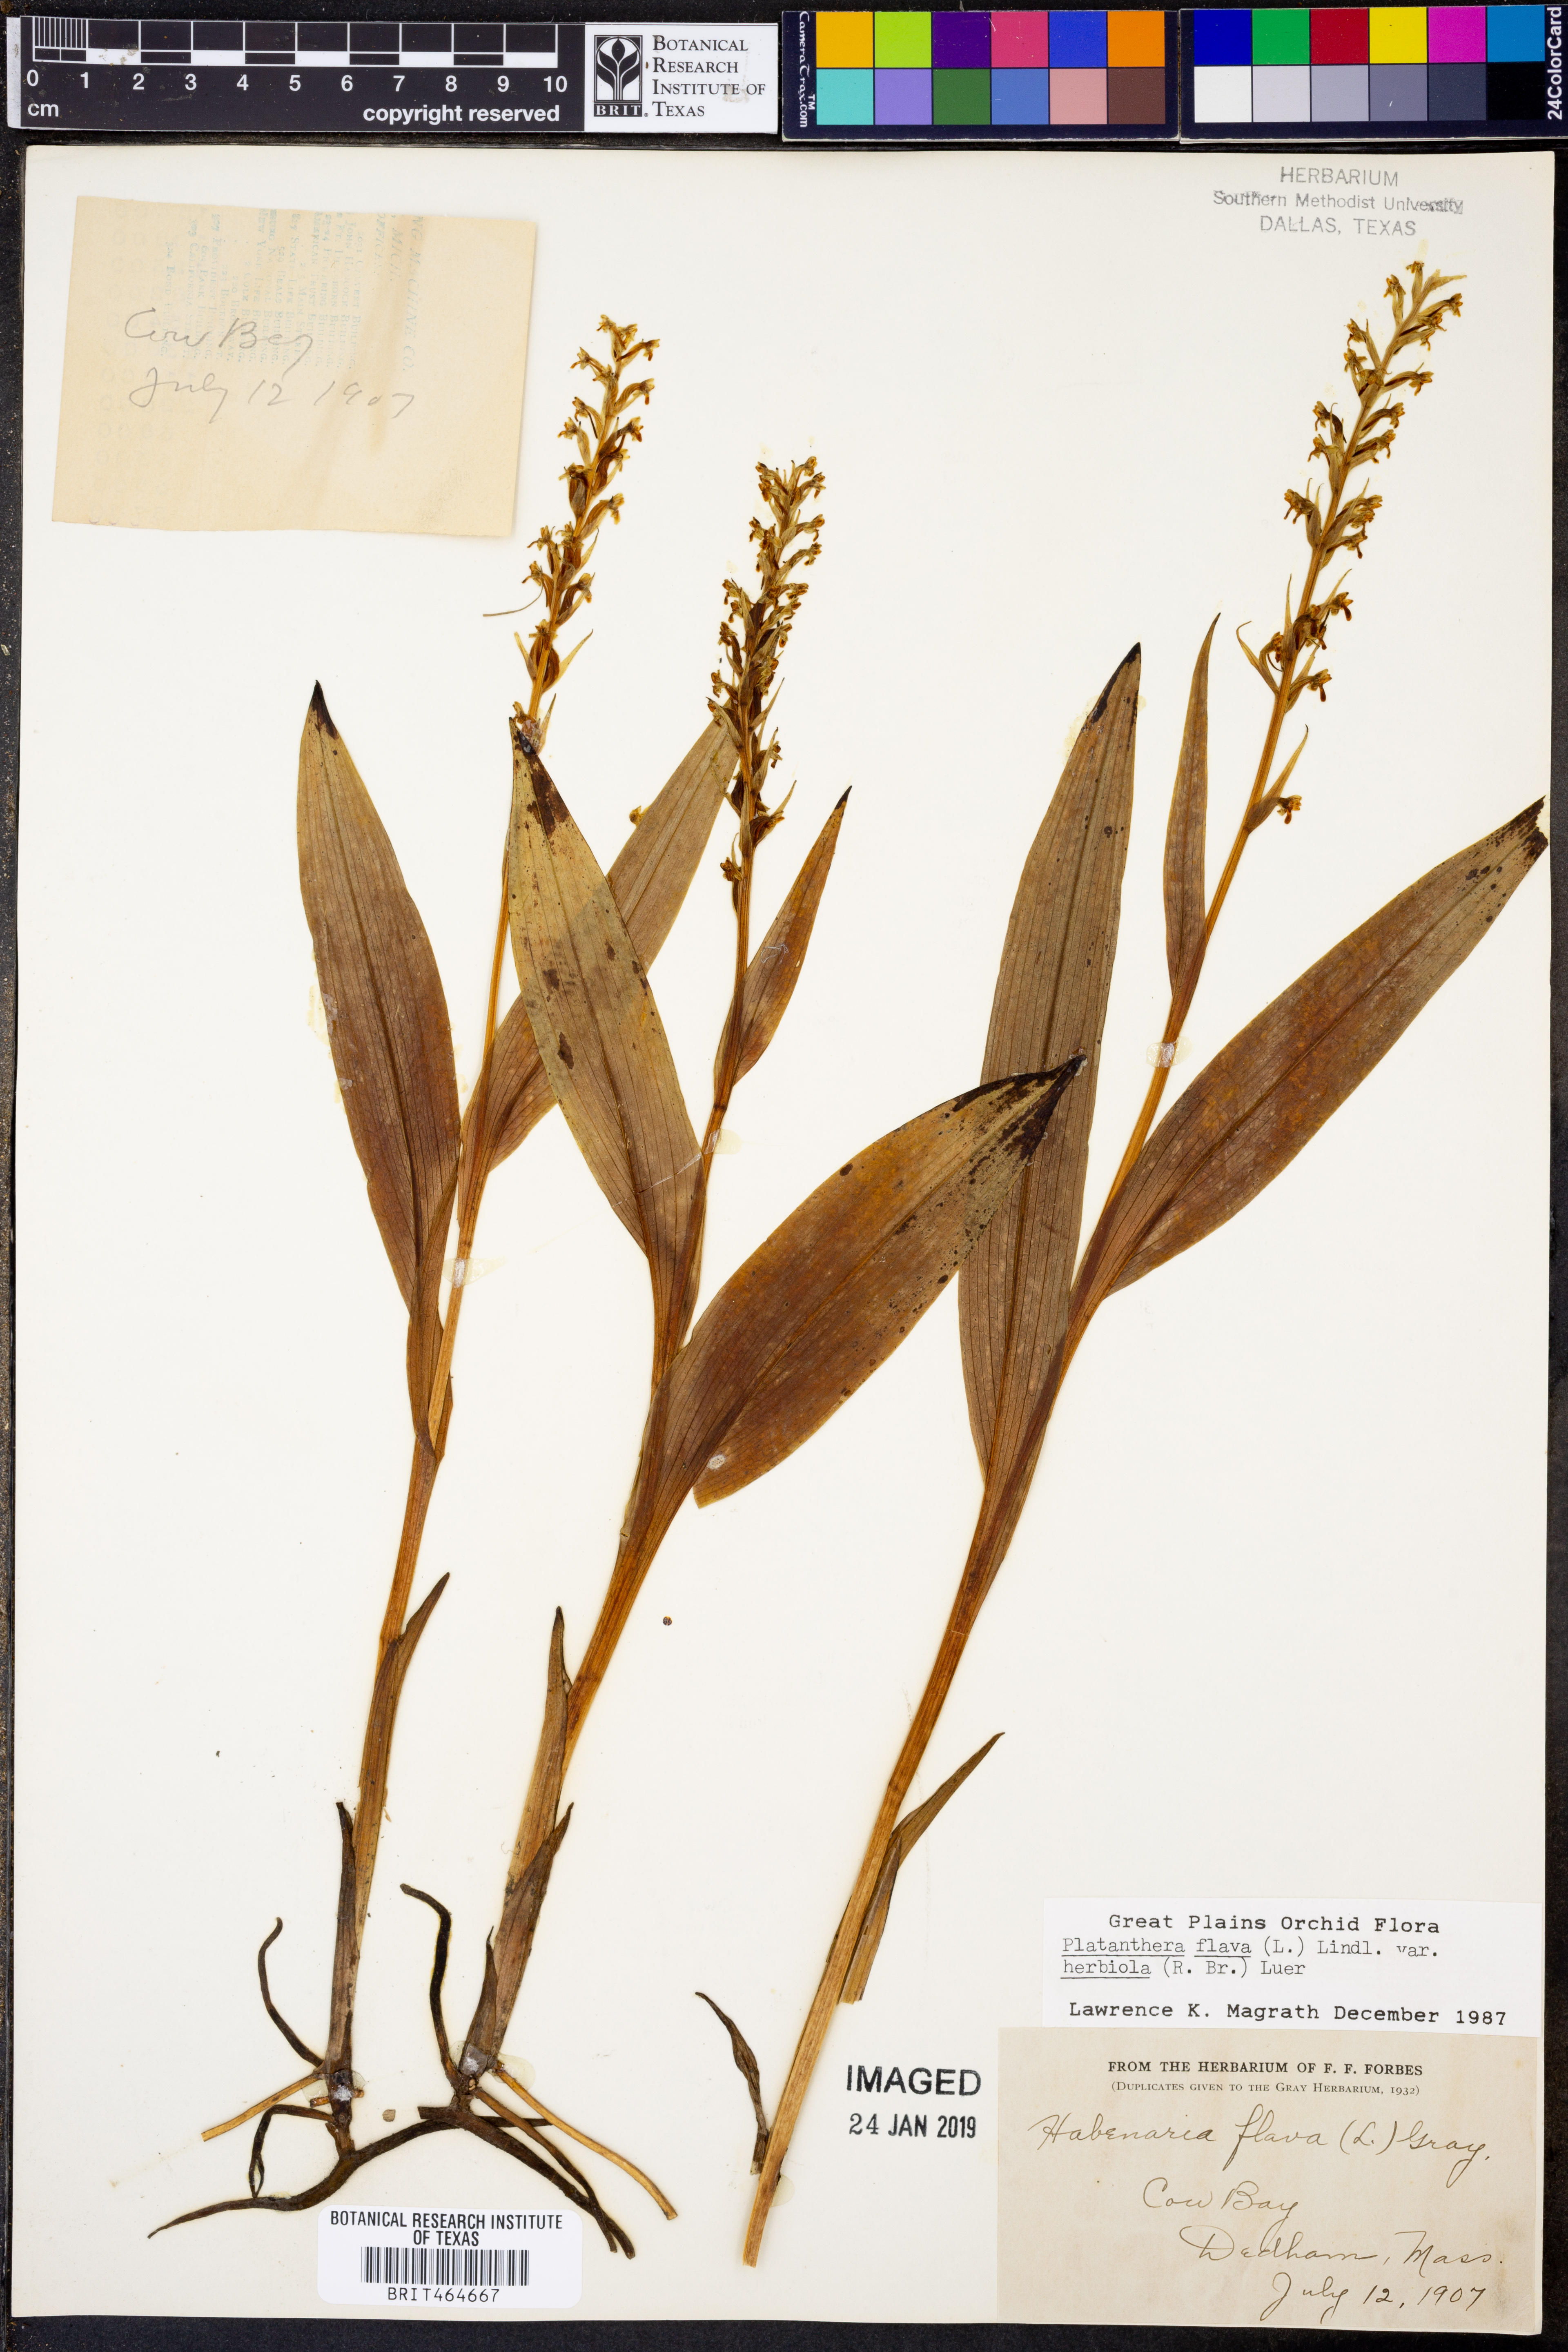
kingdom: Plantae
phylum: Tracheophyta
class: Liliopsida
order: Asparagales
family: Orchidaceae
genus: Platanthera
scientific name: Platanthera flava
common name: Gypsy-spikes
